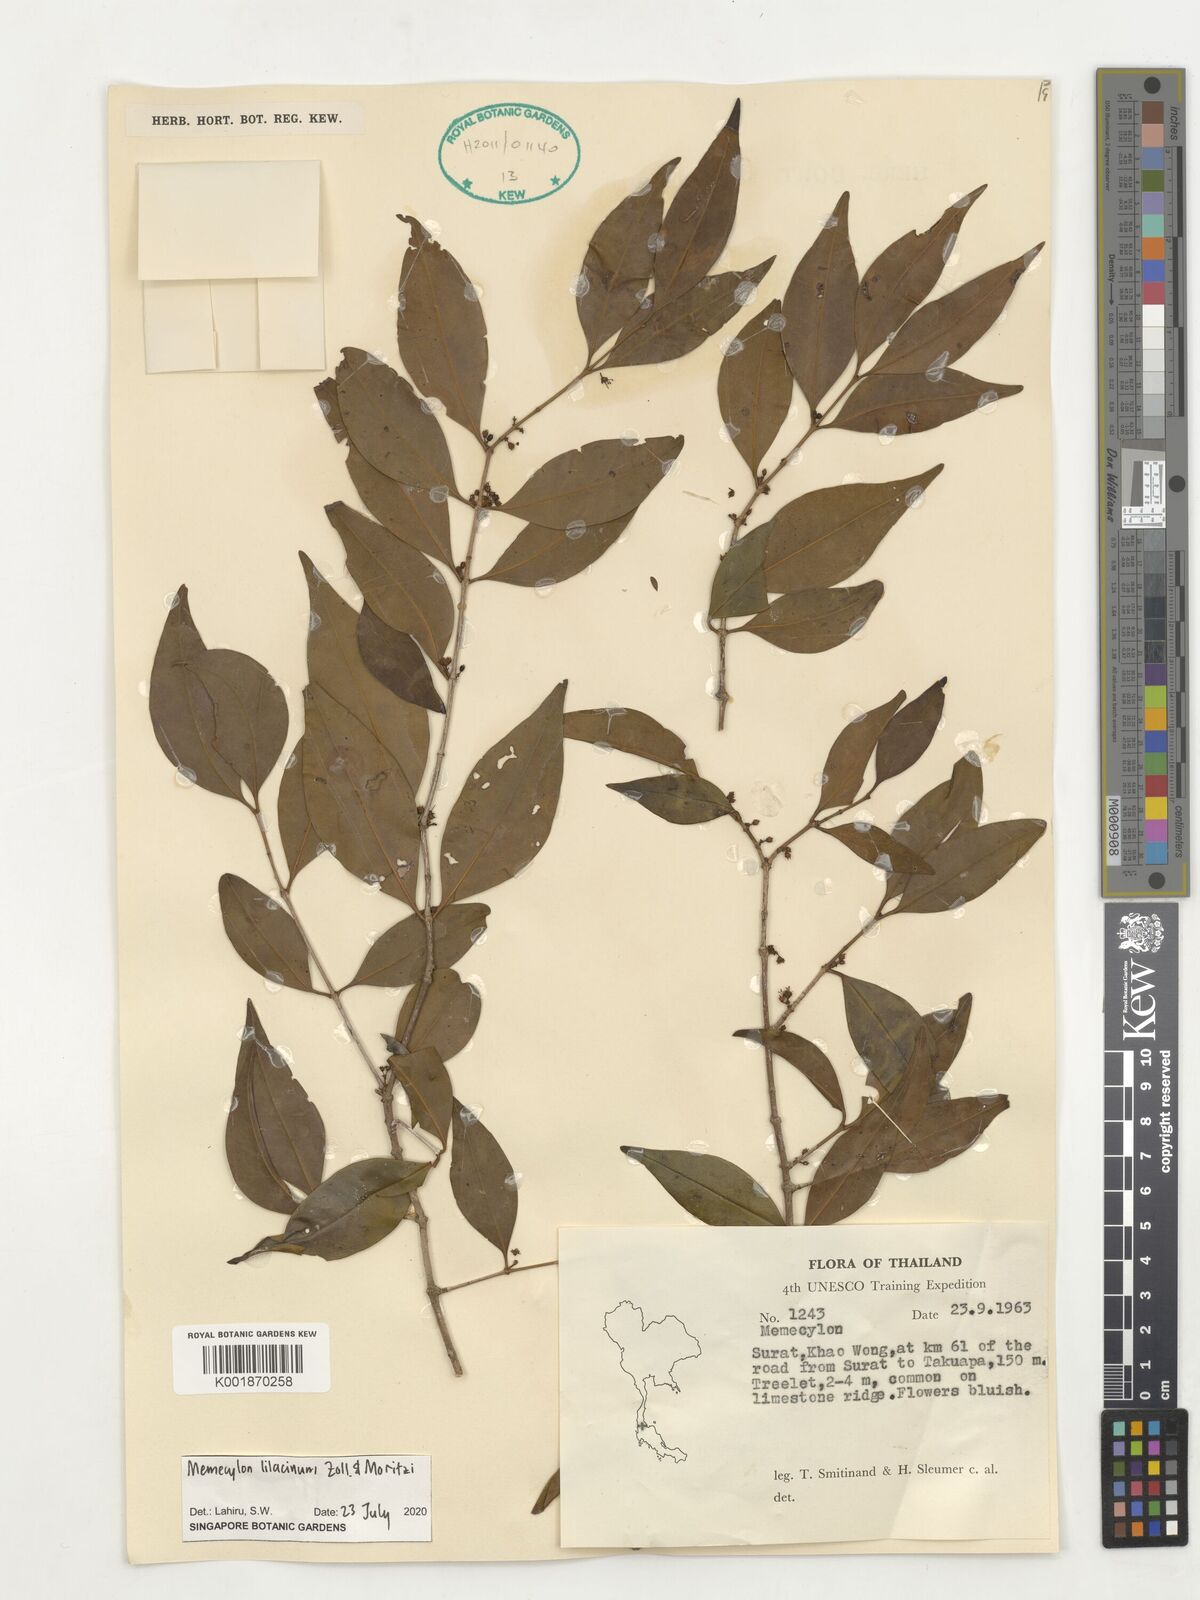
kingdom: Plantae
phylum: Tracheophyta
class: Magnoliopsida
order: Myrtales
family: Melastomataceae
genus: Memecylon
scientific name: Memecylon lilacinum
